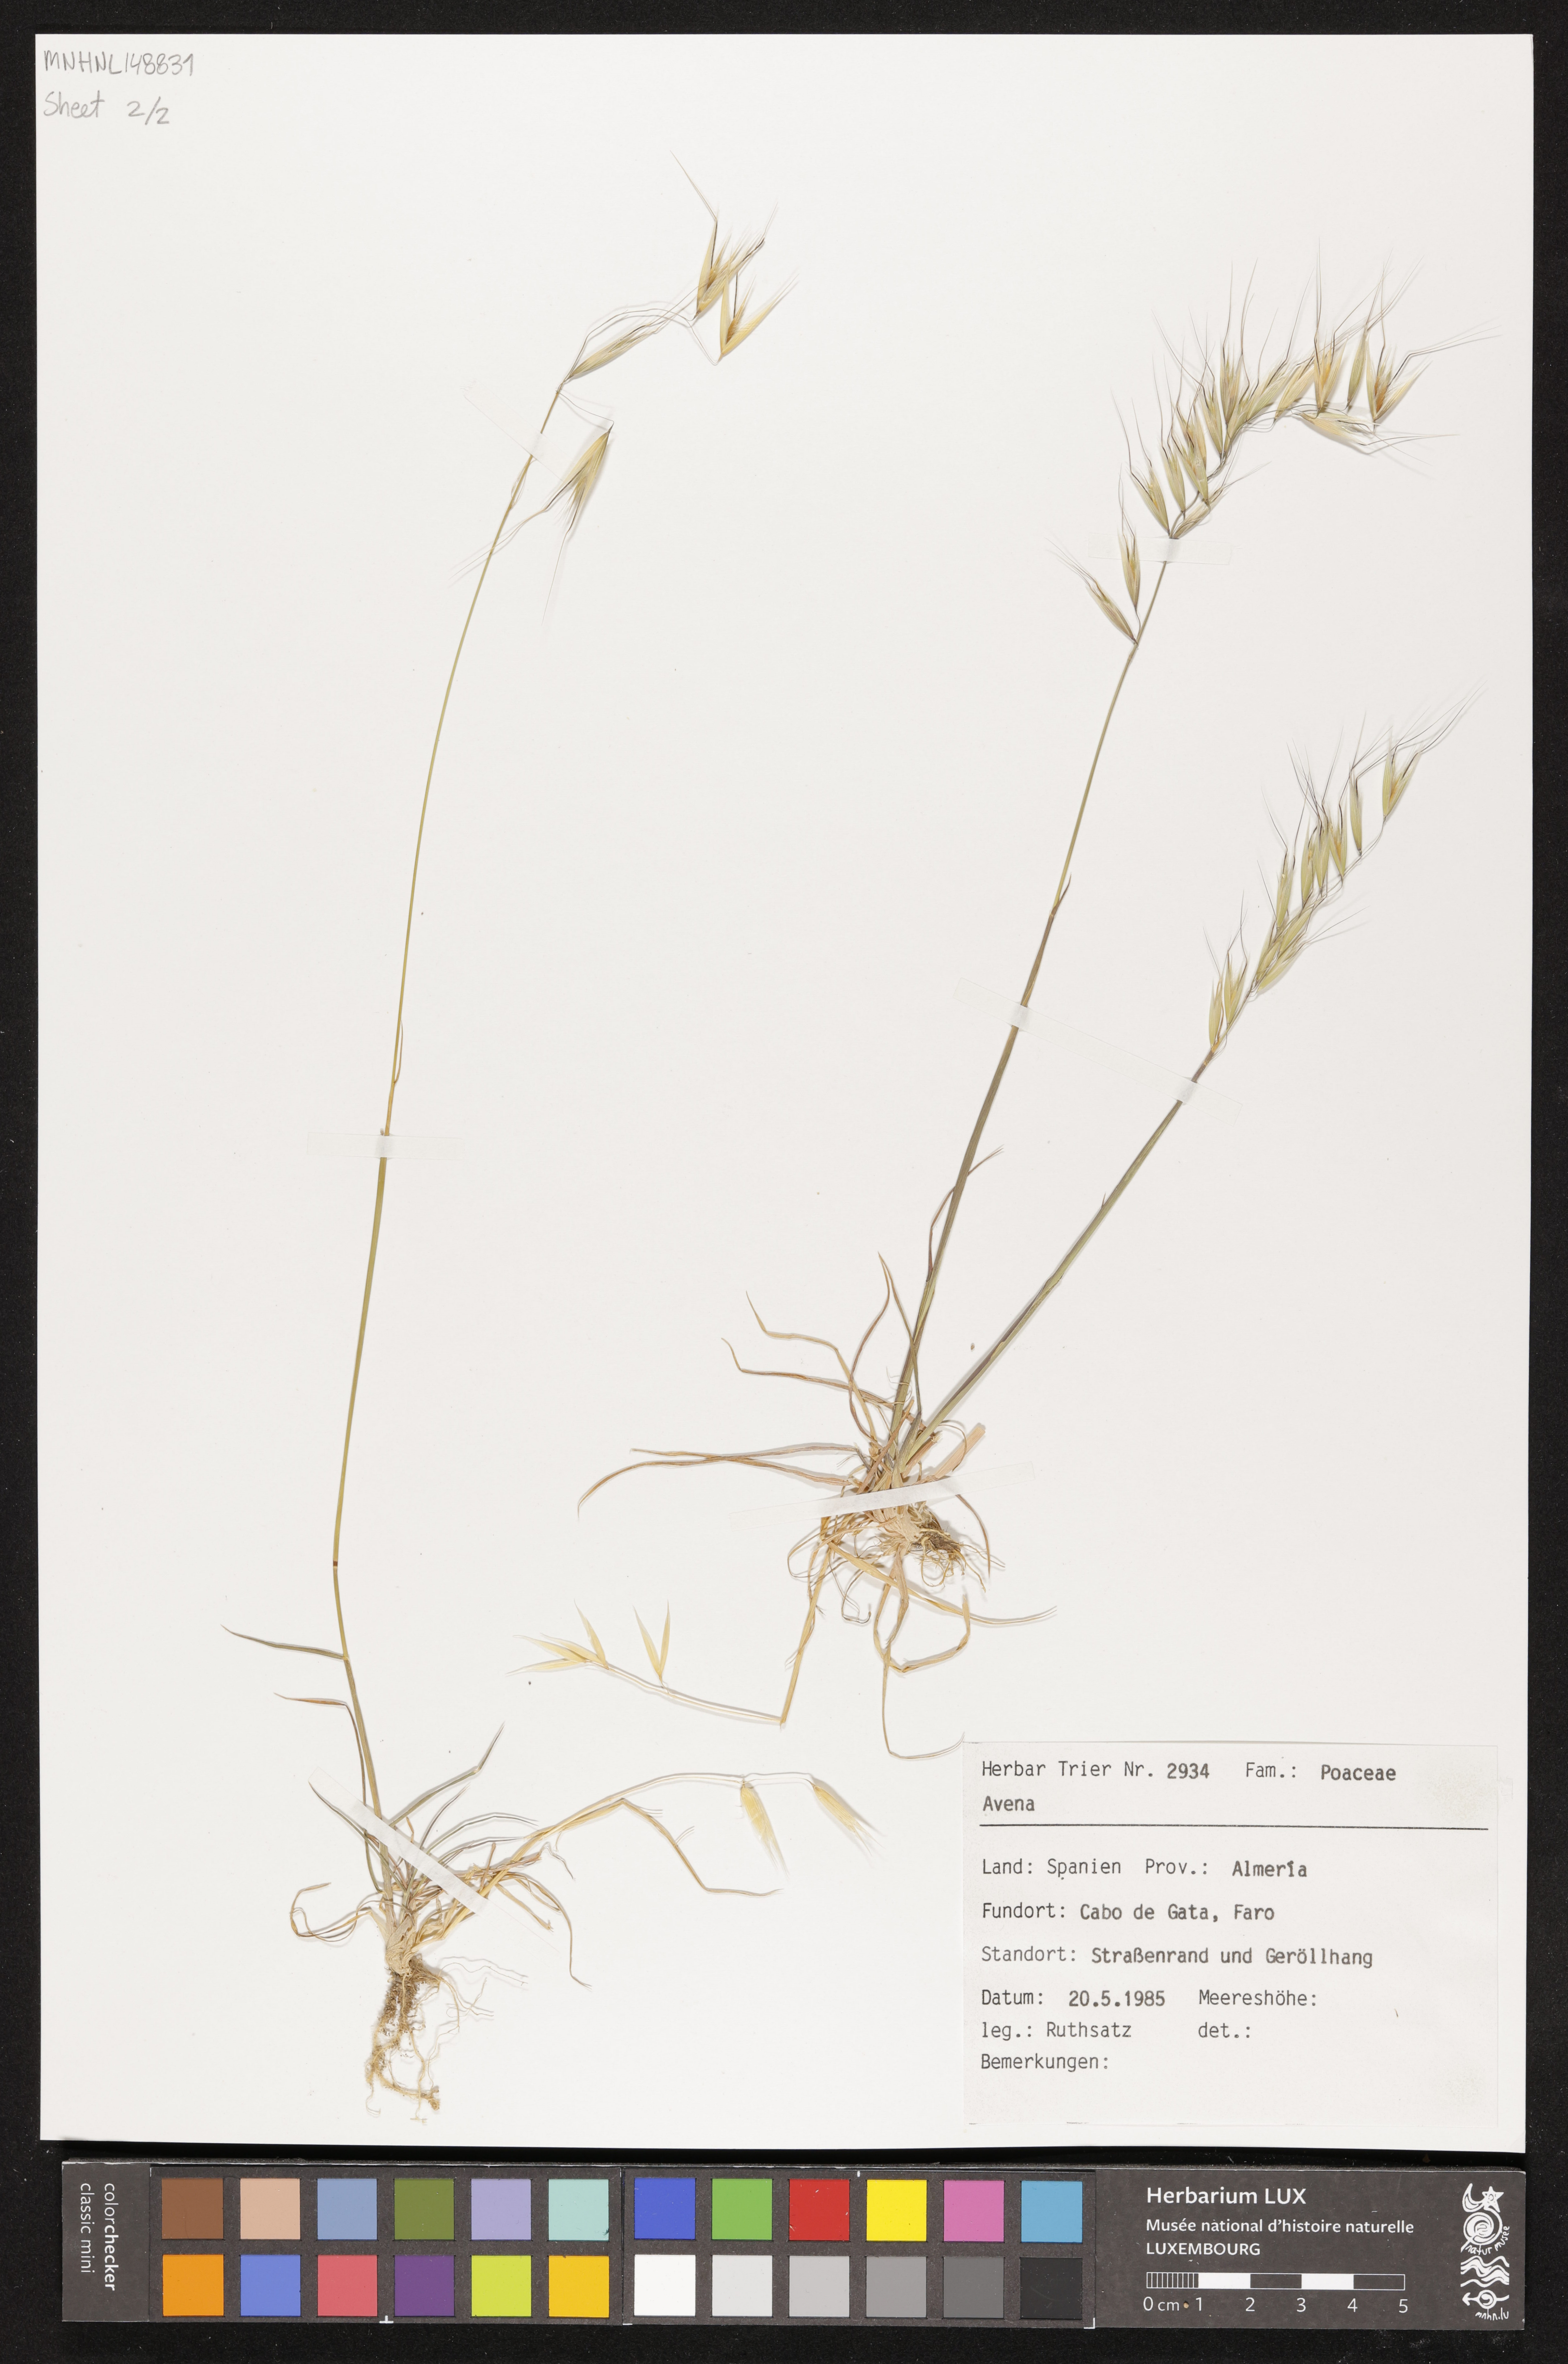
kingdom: Plantae
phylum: Tracheophyta
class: Liliopsida
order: Poales
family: Poaceae
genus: Avena
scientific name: Avena
